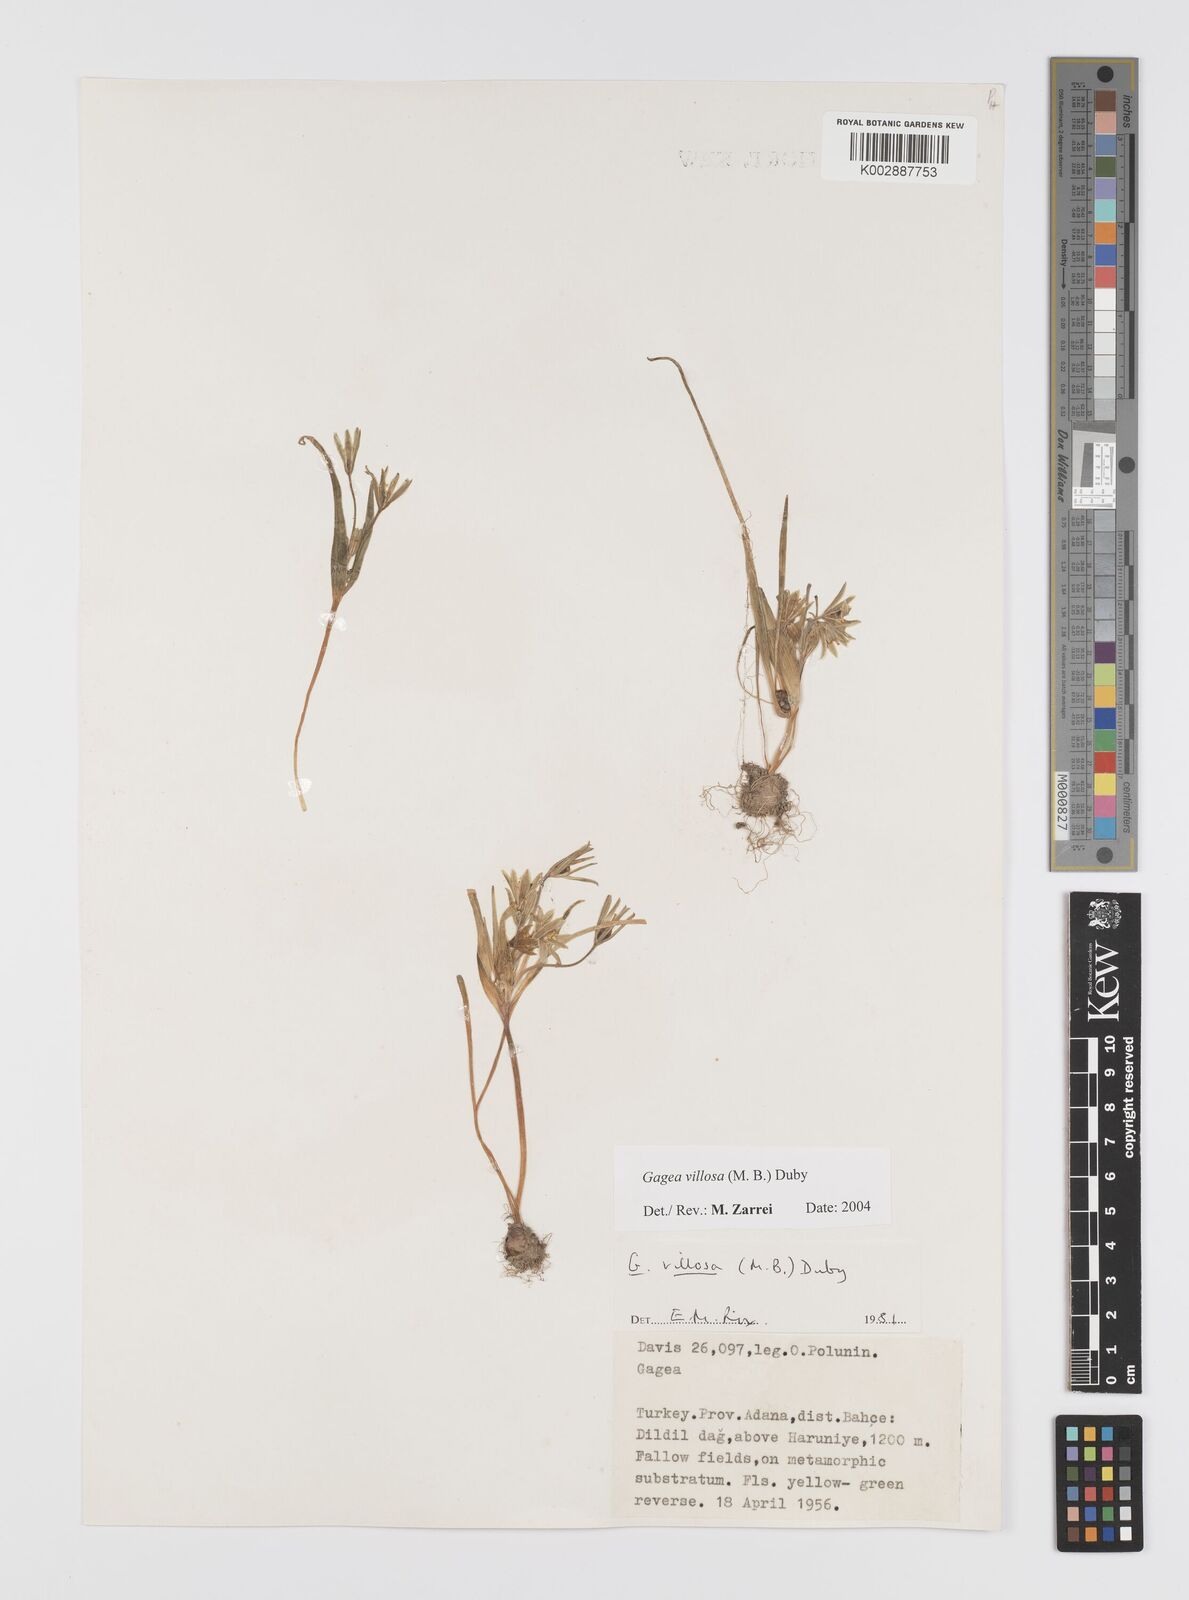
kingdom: Plantae
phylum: Tracheophyta
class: Liliopsida
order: Liliales
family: Liliaceae
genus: Gagea
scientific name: Gagea minima
